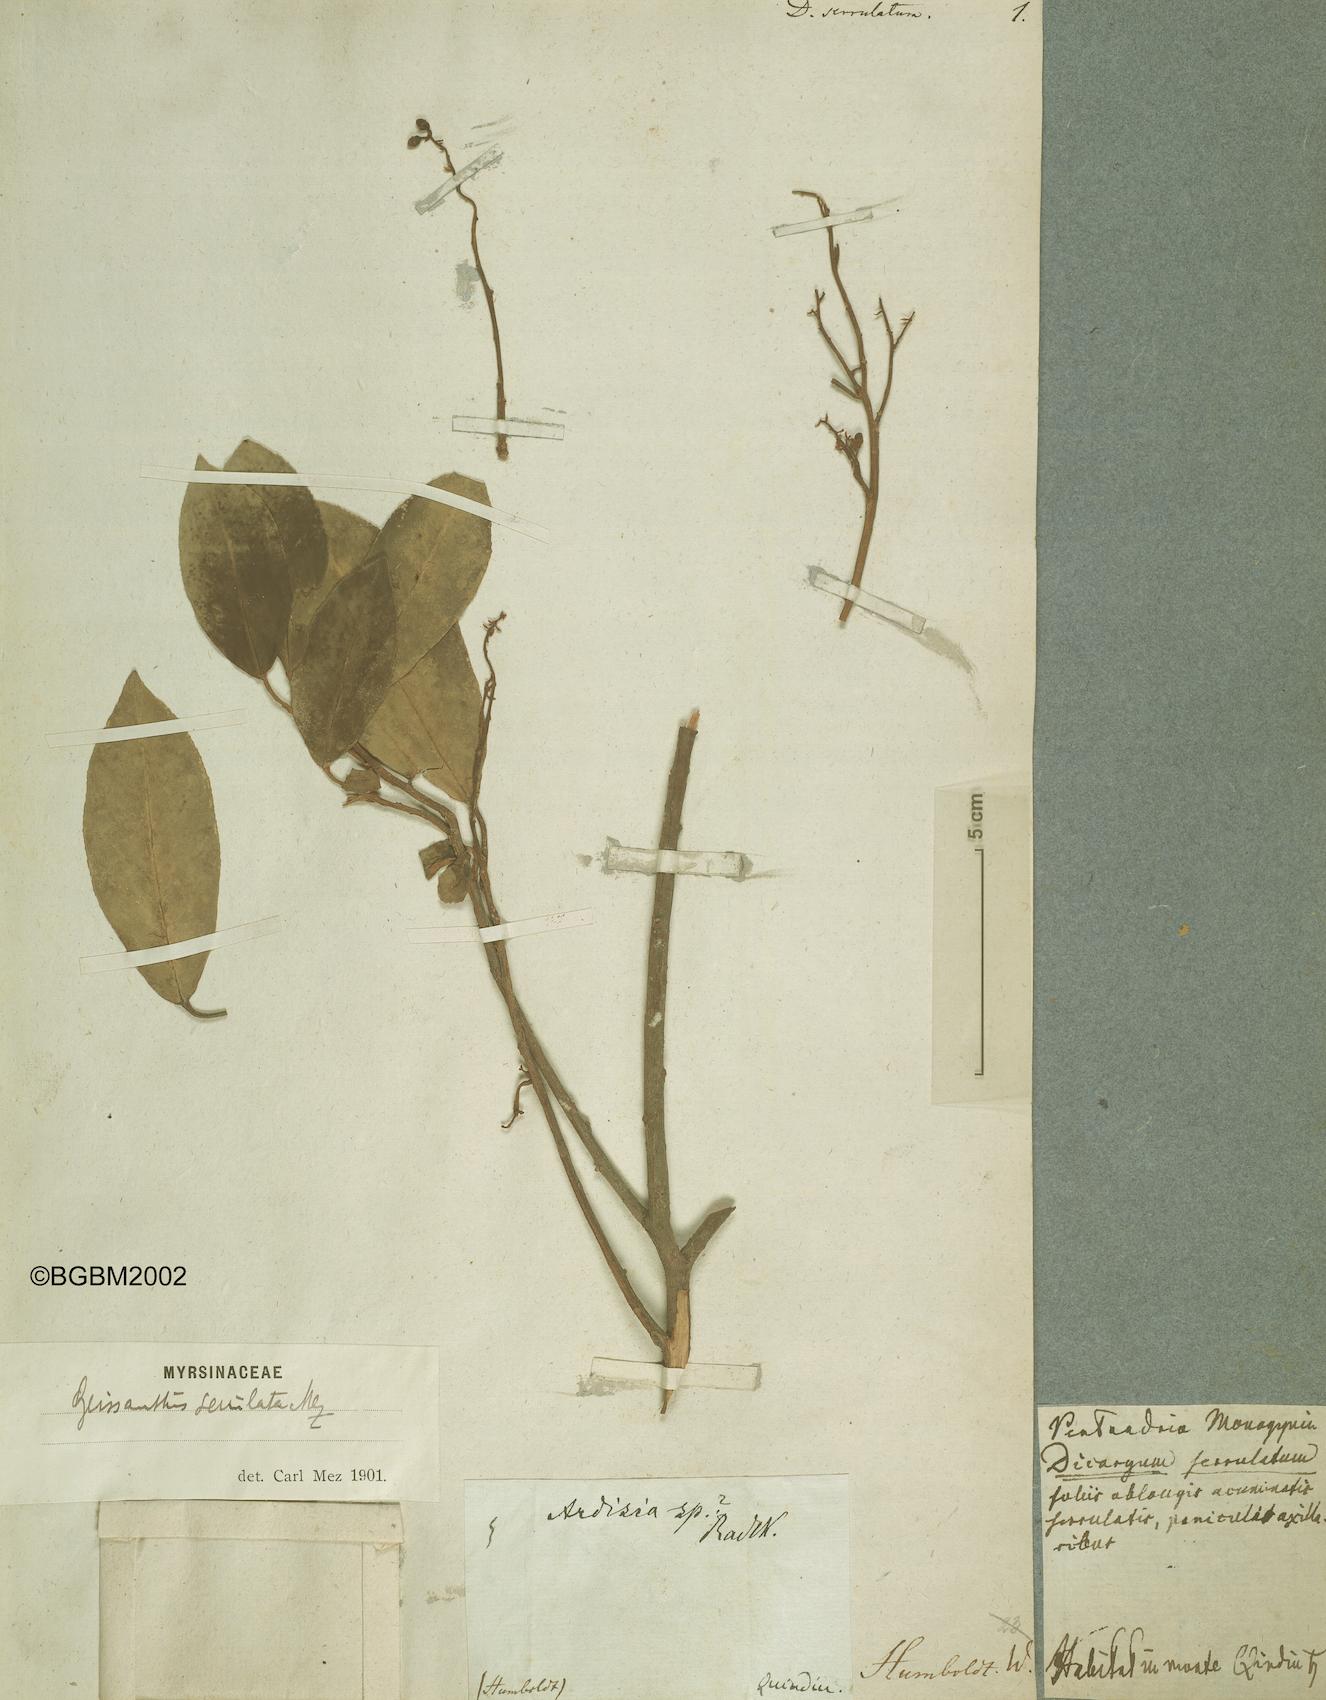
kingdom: Plantae
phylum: Tracheophyta
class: Magnoliopsida
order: Ericales
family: Primulaceae
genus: Geissanthus
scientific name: Geissanthus serrulatus
